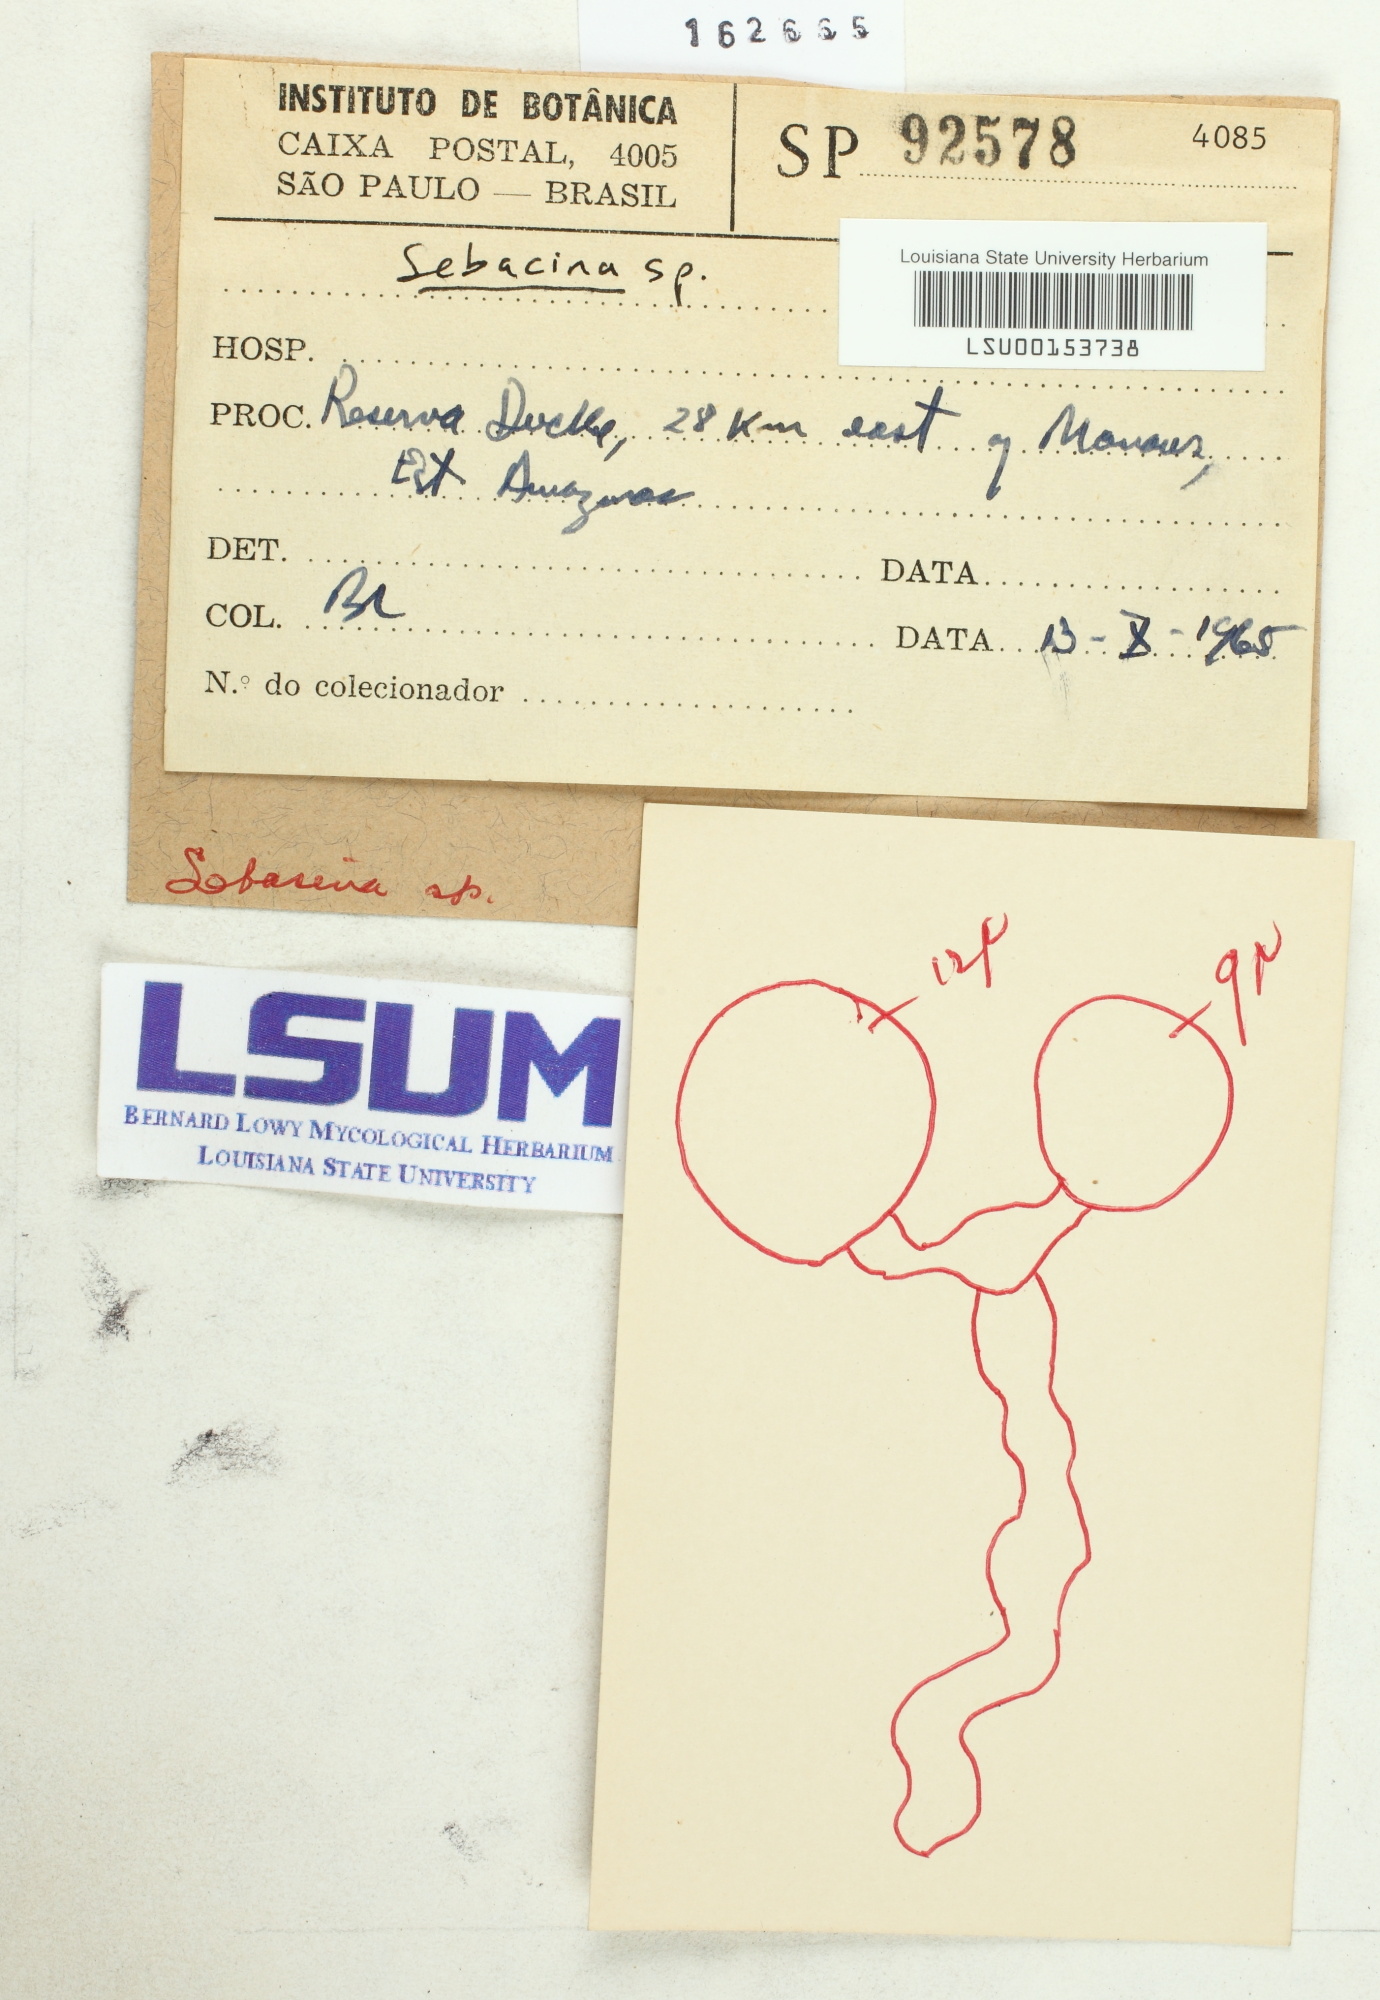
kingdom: Fungi
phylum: Basidiomycota
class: Agaricomycetes
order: Sebacinales
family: Sebacinaceae
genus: Sebacina
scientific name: Sebacina
